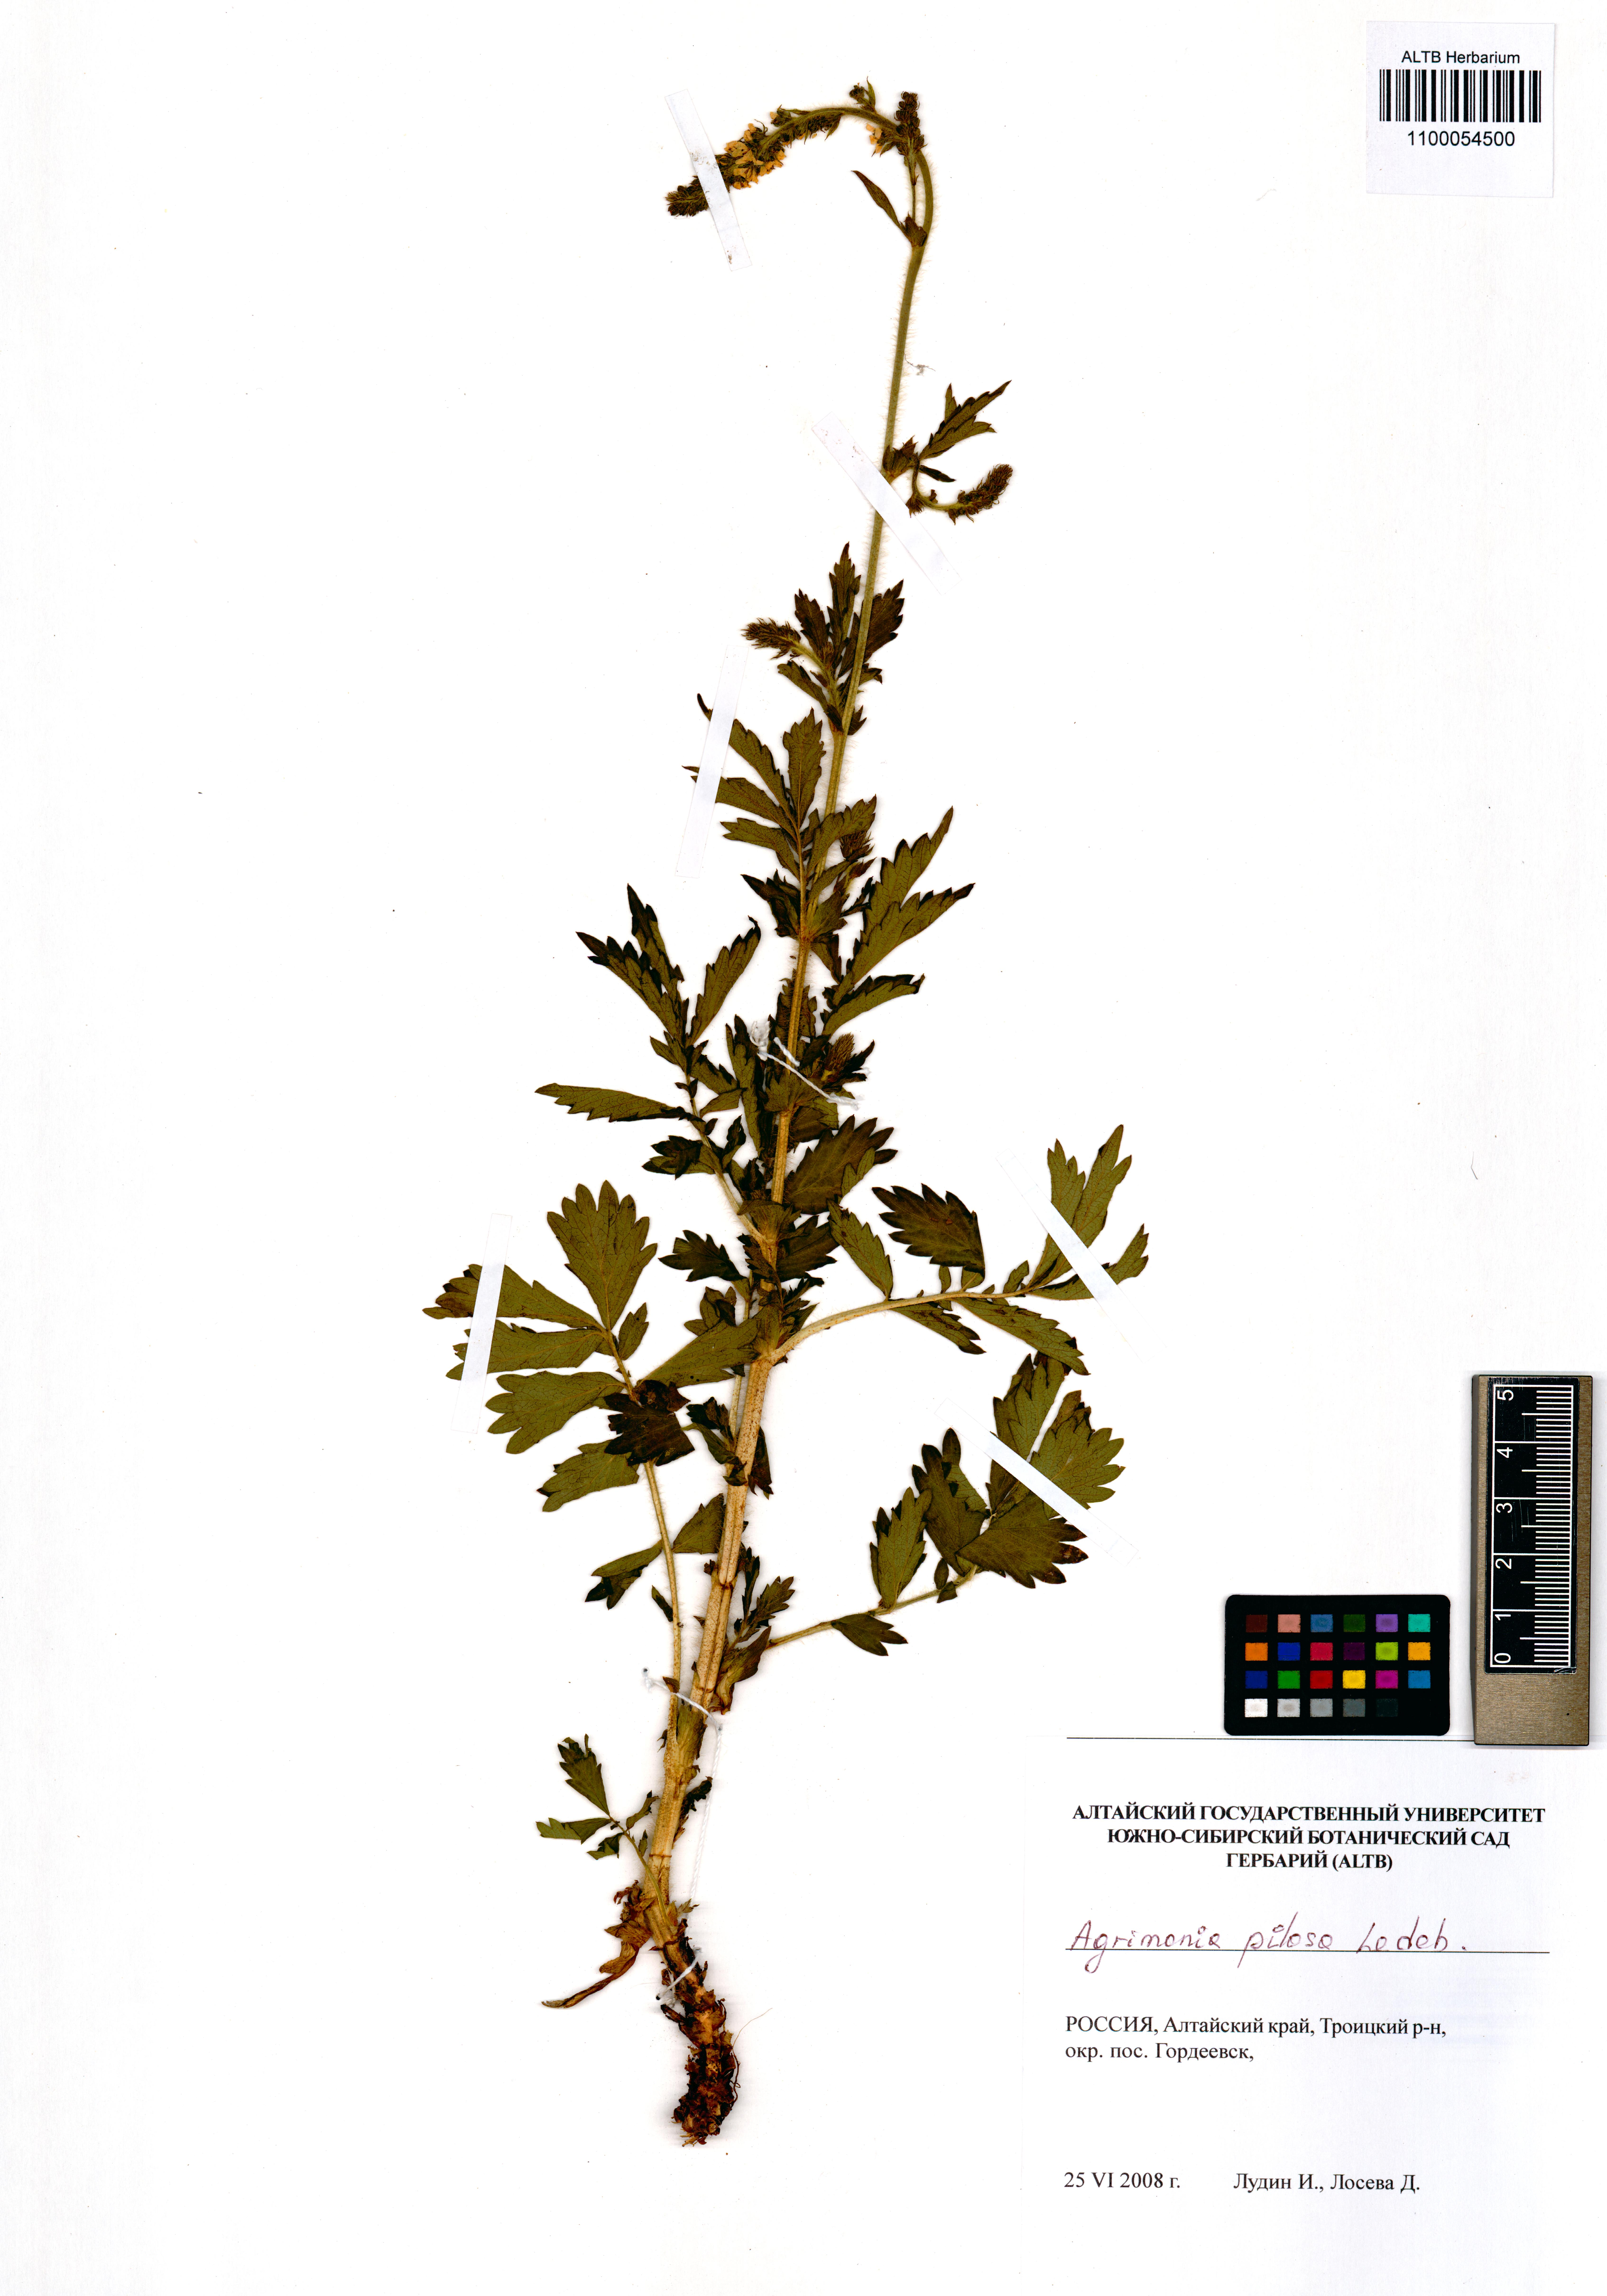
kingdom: Plantae
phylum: Tracheophyta
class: Magnoliopsida
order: Rosales
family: Rosaceae
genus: Agrimonia
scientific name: Agrimonia pilosa
